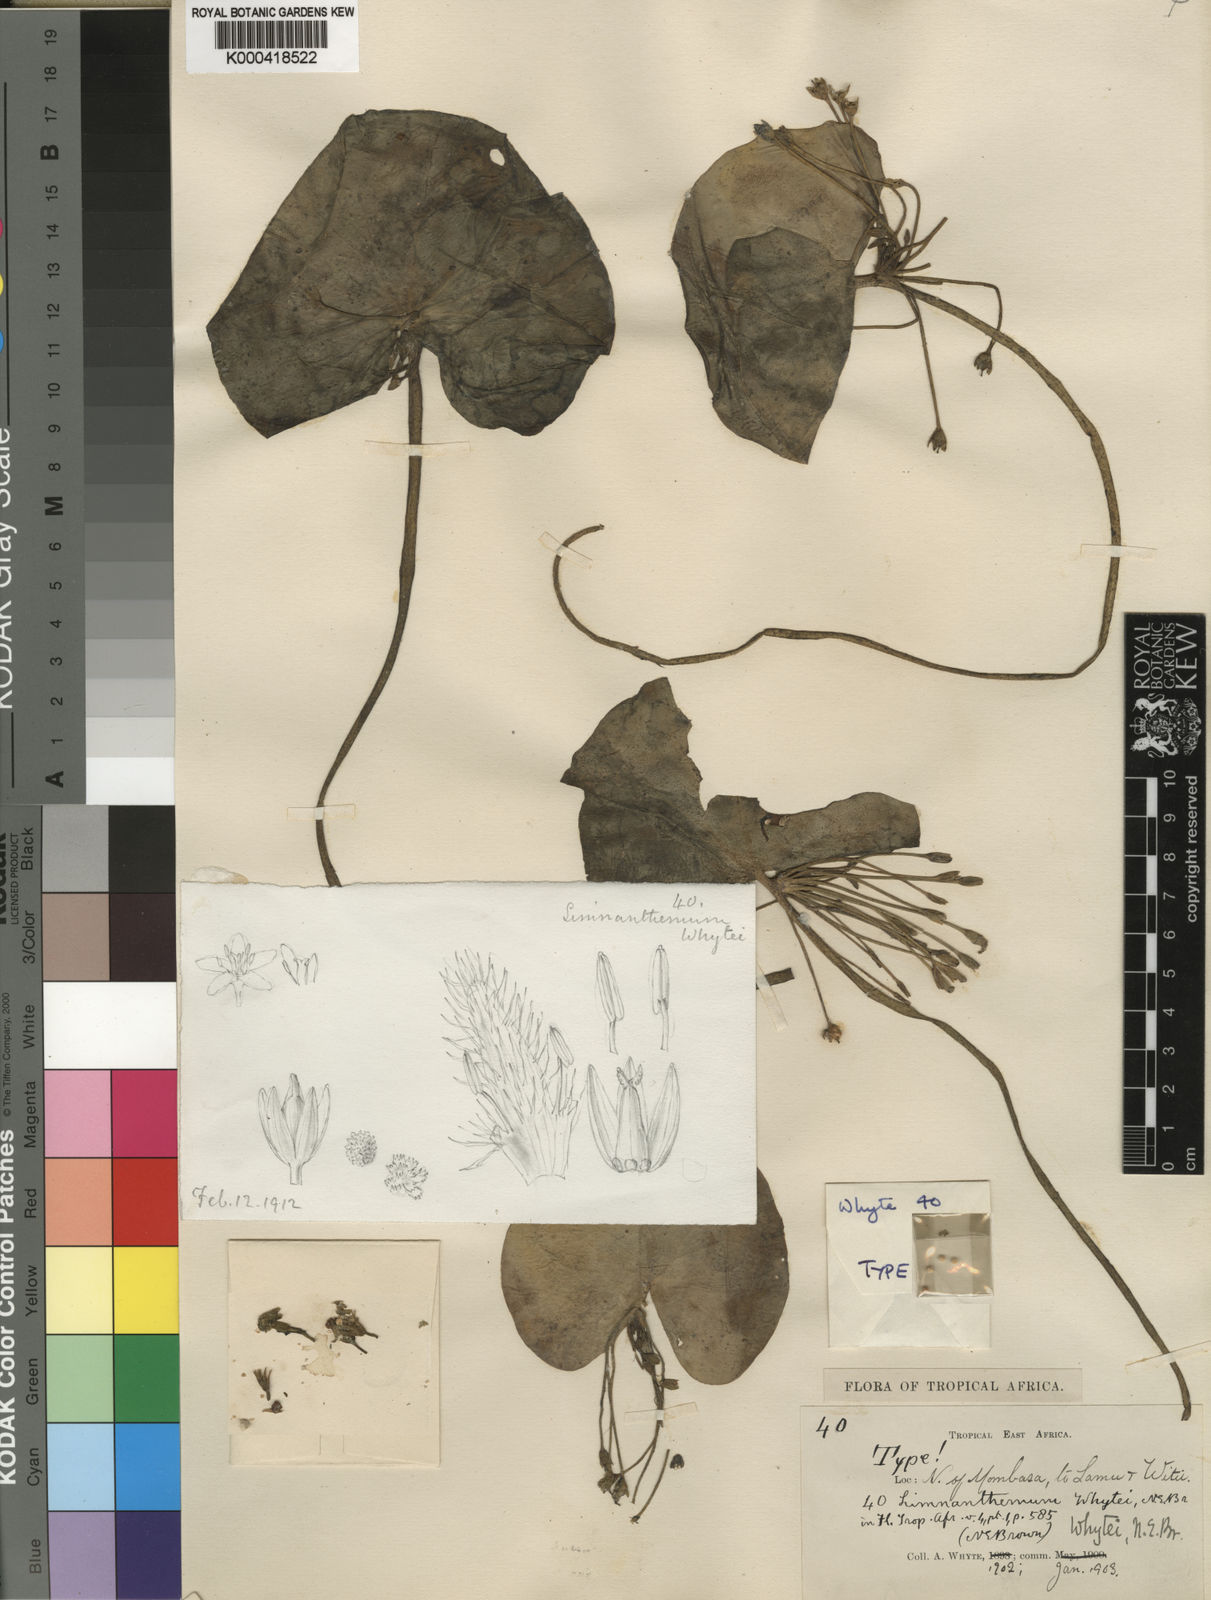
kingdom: Plantae
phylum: Tracheophyta
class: Magnoliopsida
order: Asterales
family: Menyanthaceae
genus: Nymphoides
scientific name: Nymphoides indica
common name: Water-snowflake
